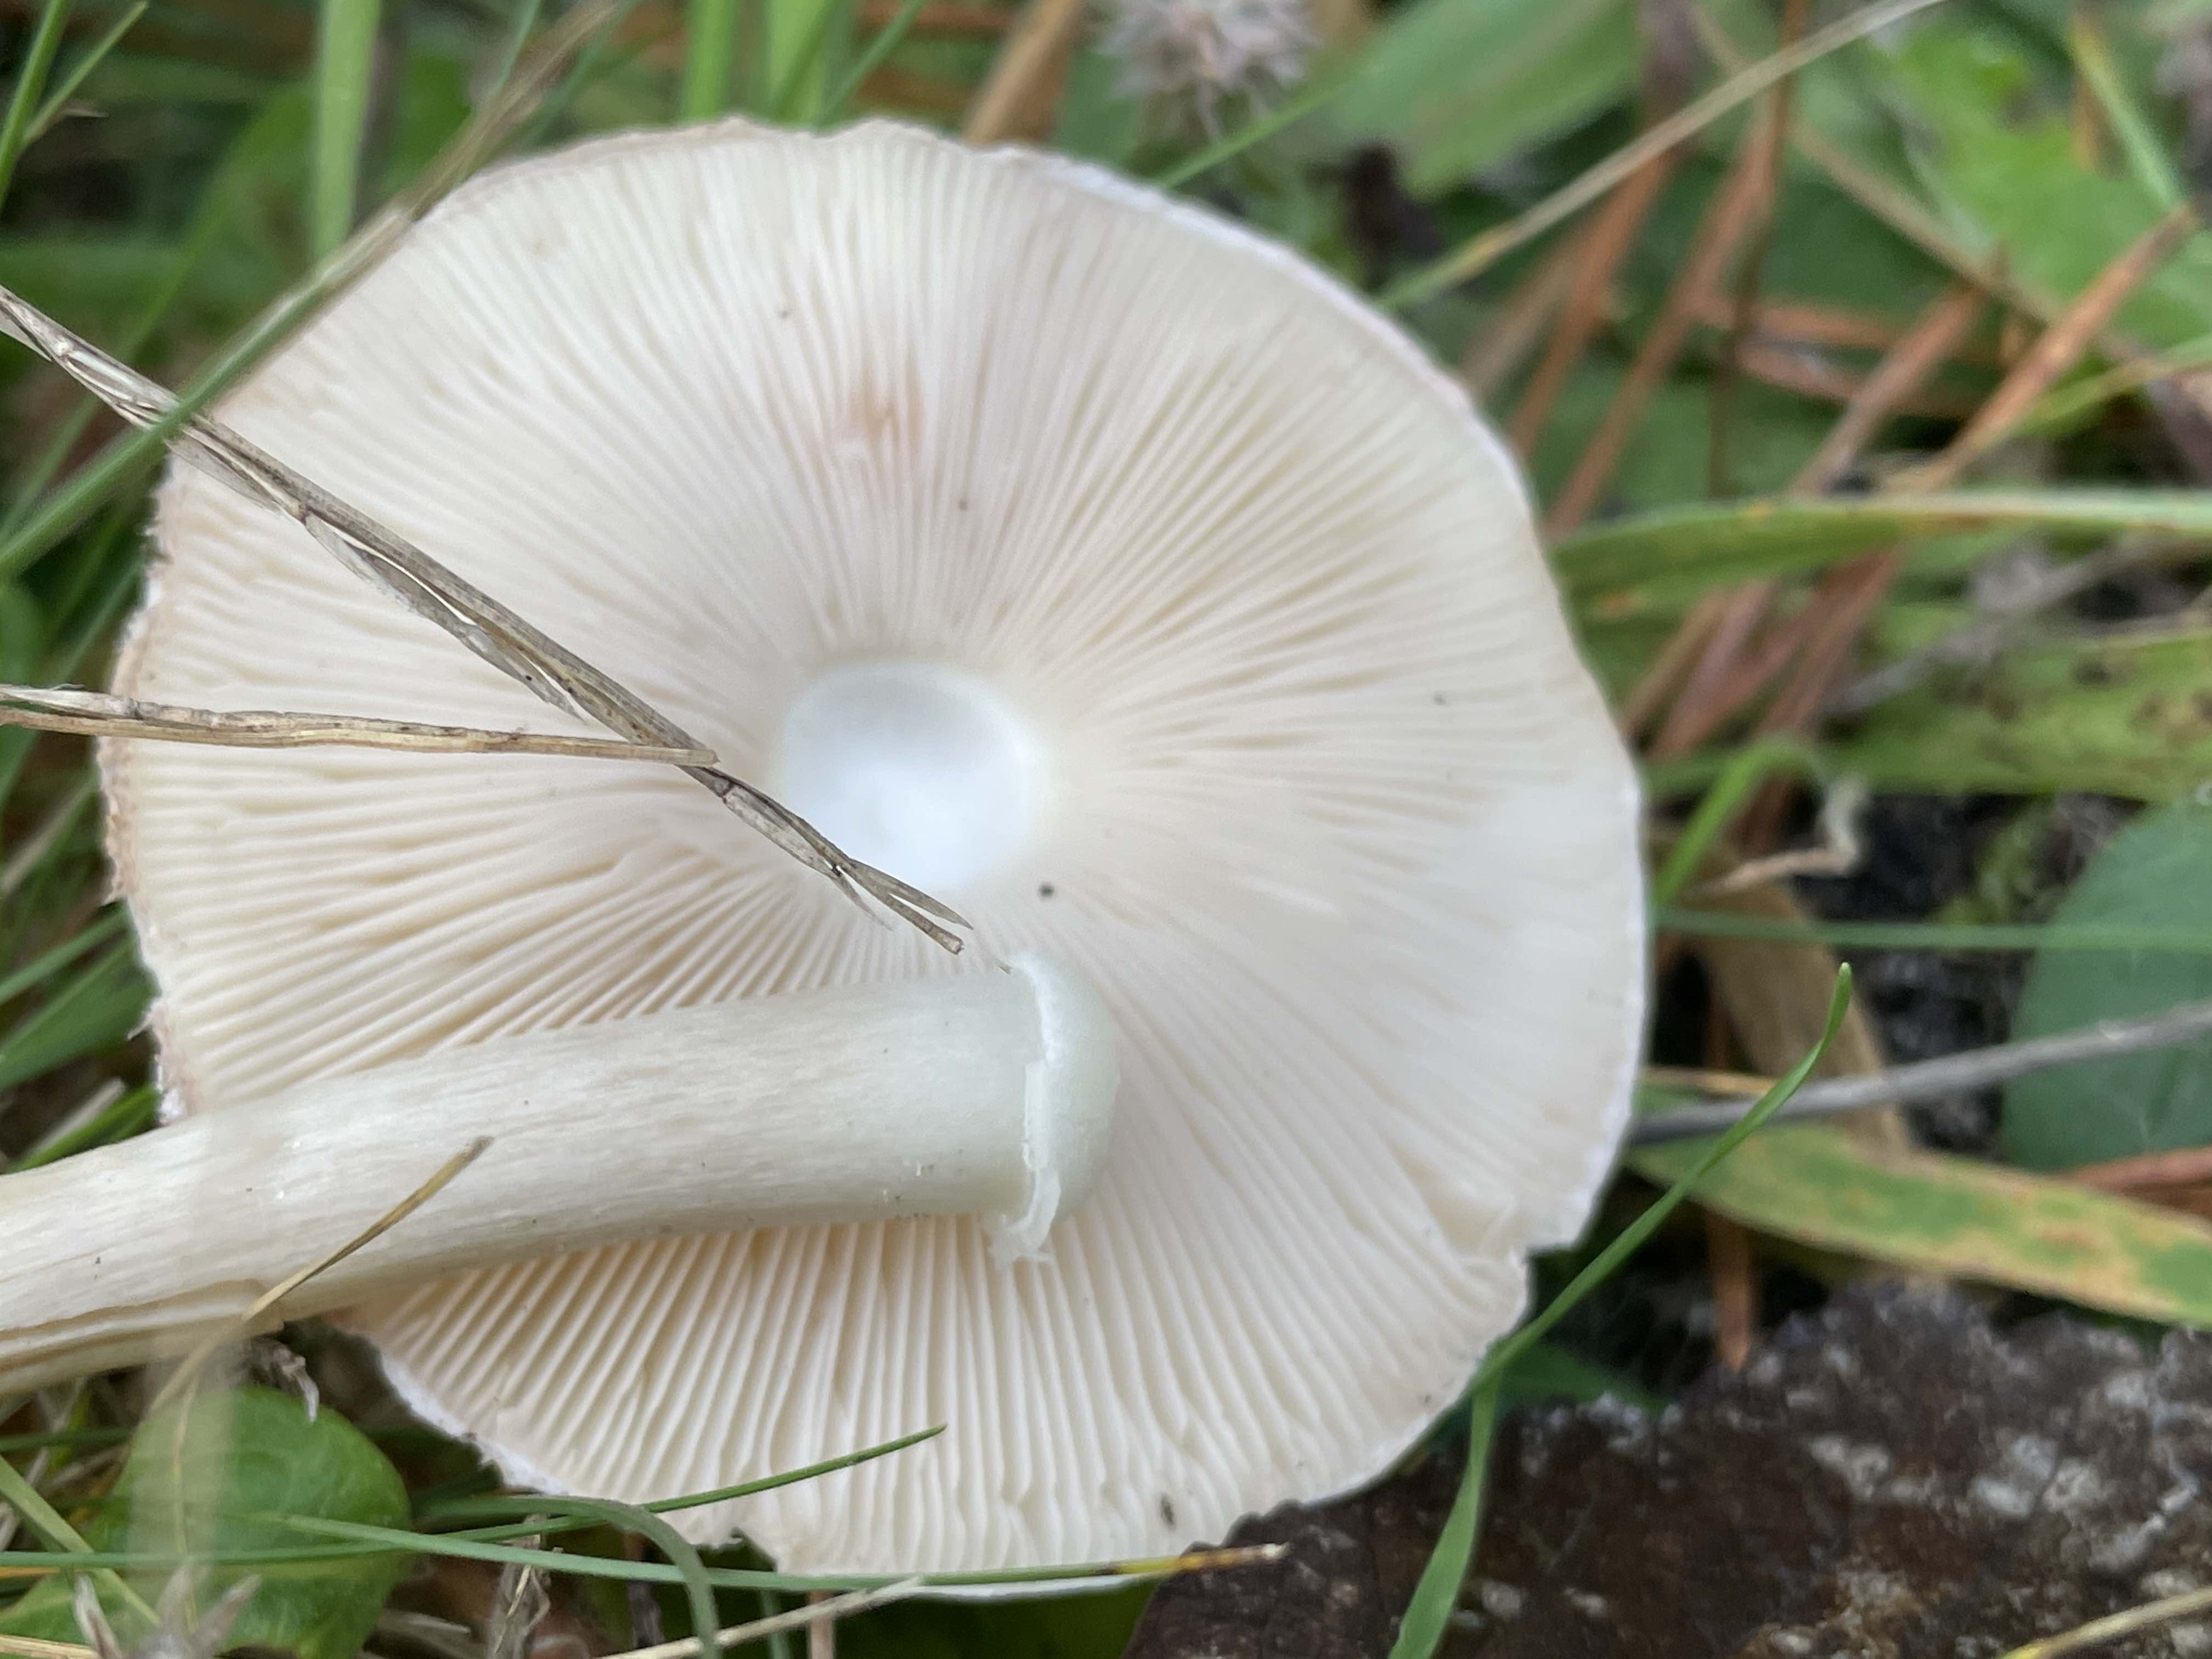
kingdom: Fungi
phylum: Basidiomycota
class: Agaricomycetes
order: Agaricales
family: Agaricaceae
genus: Leucoagaricus
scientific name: Leucoagaricus leucothites
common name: rosabladet silkehat
